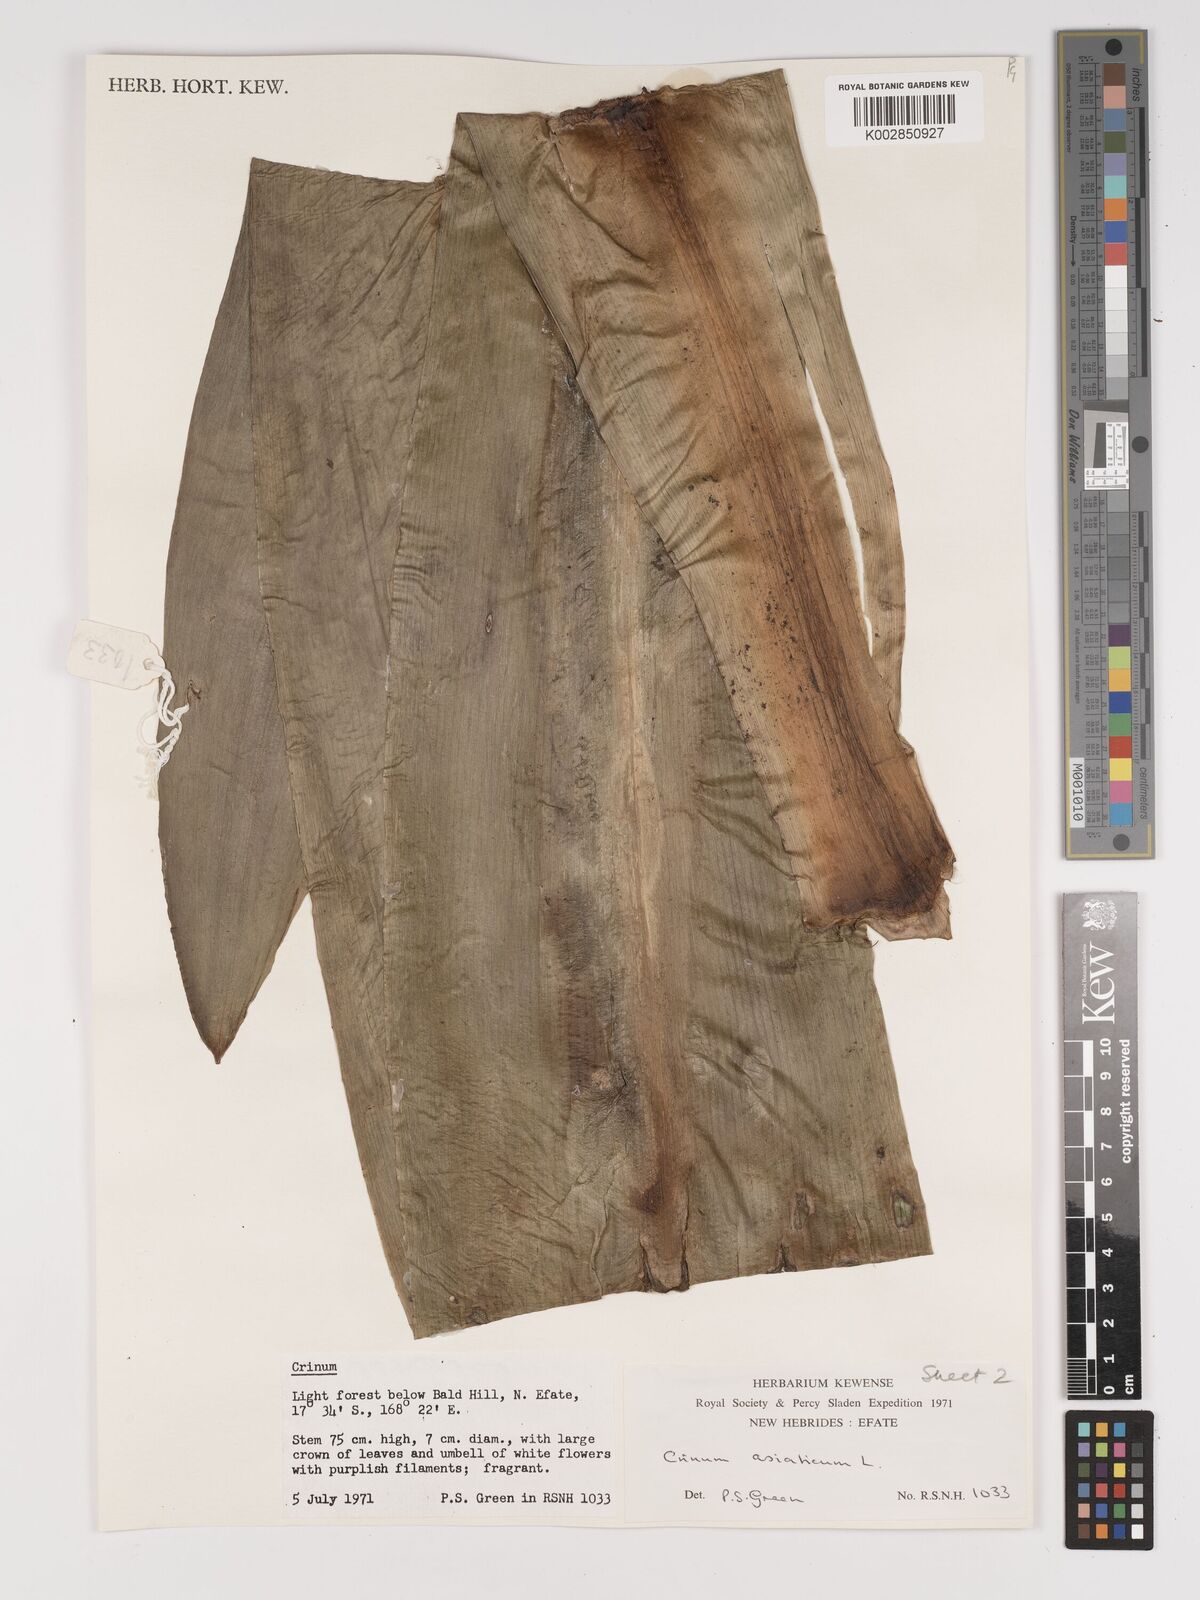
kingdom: Plantae
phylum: Tracheophyta
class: Liliopsida
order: Asparagales
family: Amaryllidaceae
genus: Crinum
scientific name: Crinum asiaticum
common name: Poisonbulb
